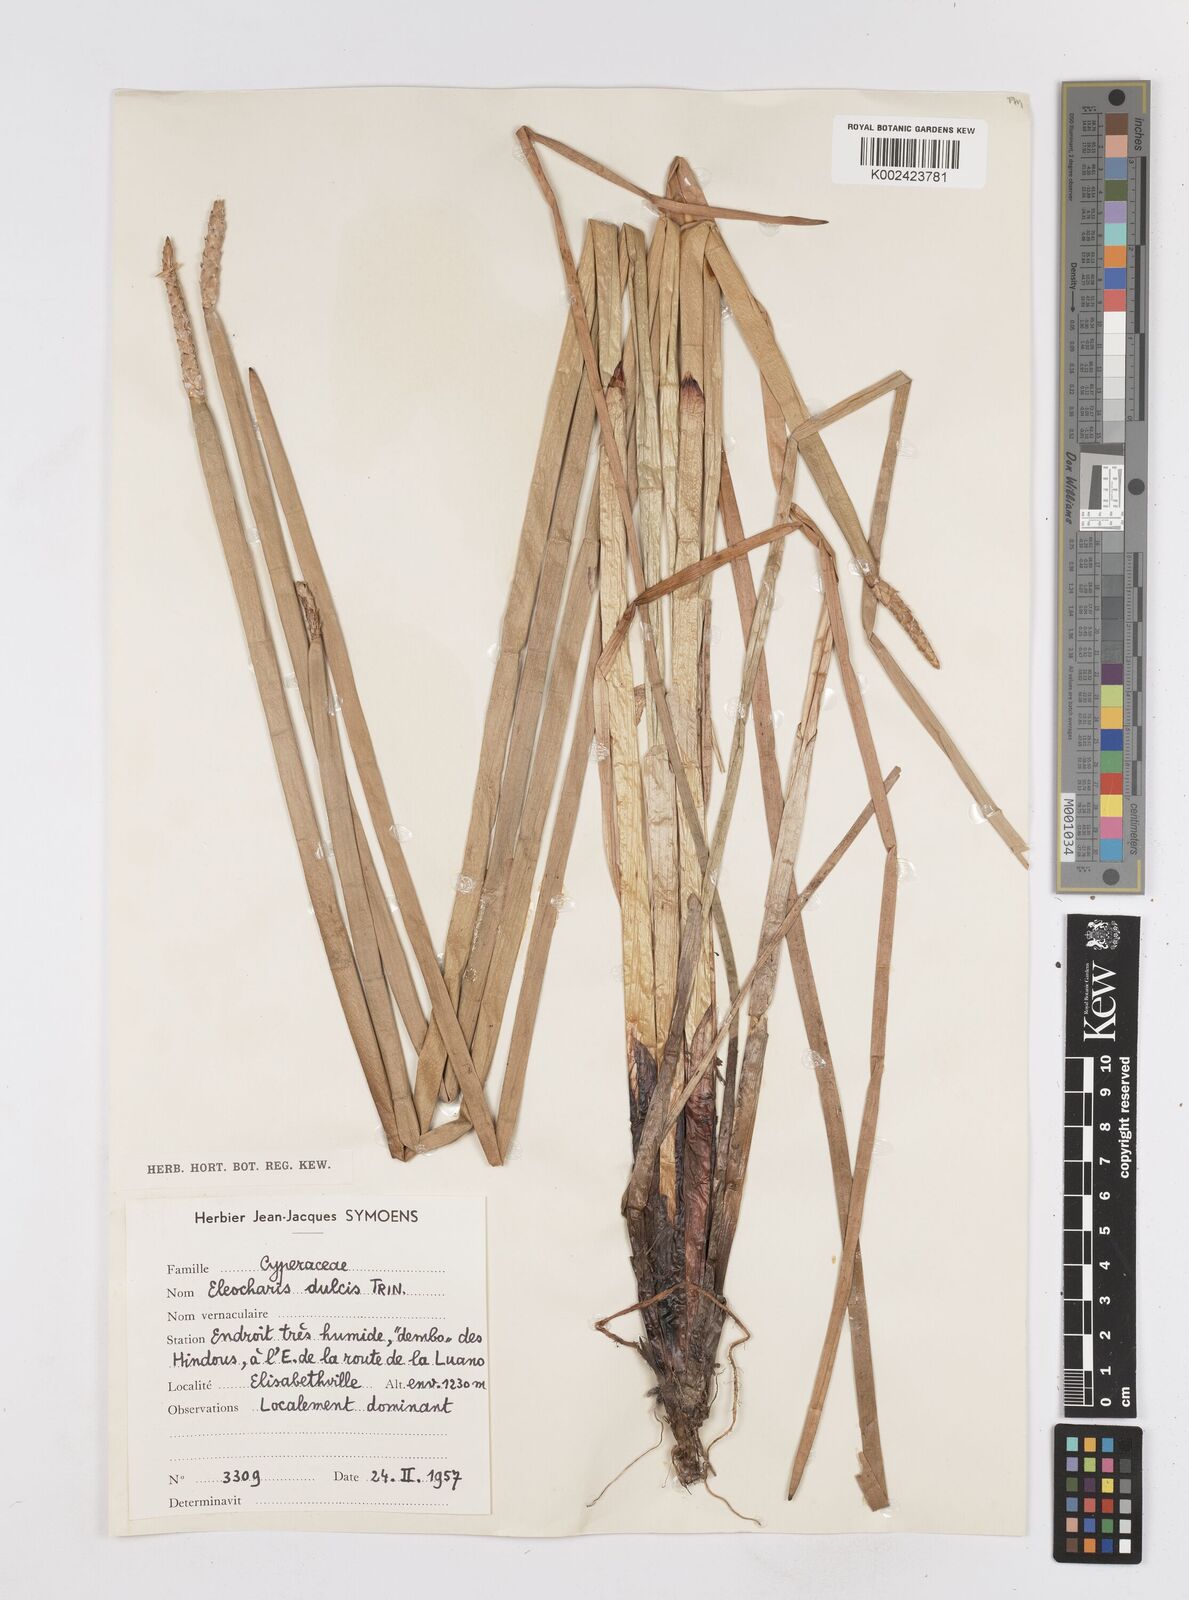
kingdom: Plantae
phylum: Tracheophyta
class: Liliopsida
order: Poales
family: Cyperaceae
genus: Eleocharis
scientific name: Eleocharis dulcis
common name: Chinese water chestnut
